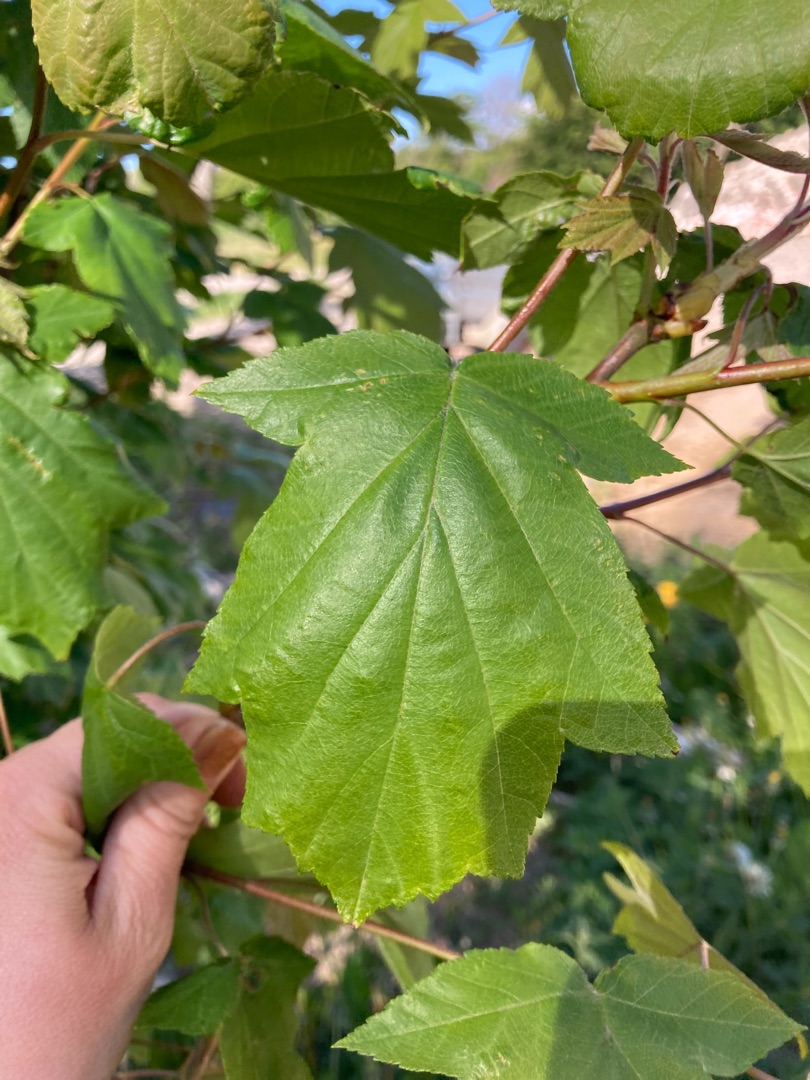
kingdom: Plantae
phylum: Tracheophyta
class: Magnoliopsida
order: Rosales
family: Rosaceae
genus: Torminalis
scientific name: Torminalis glaberrima
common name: Tarmvrid-røn
